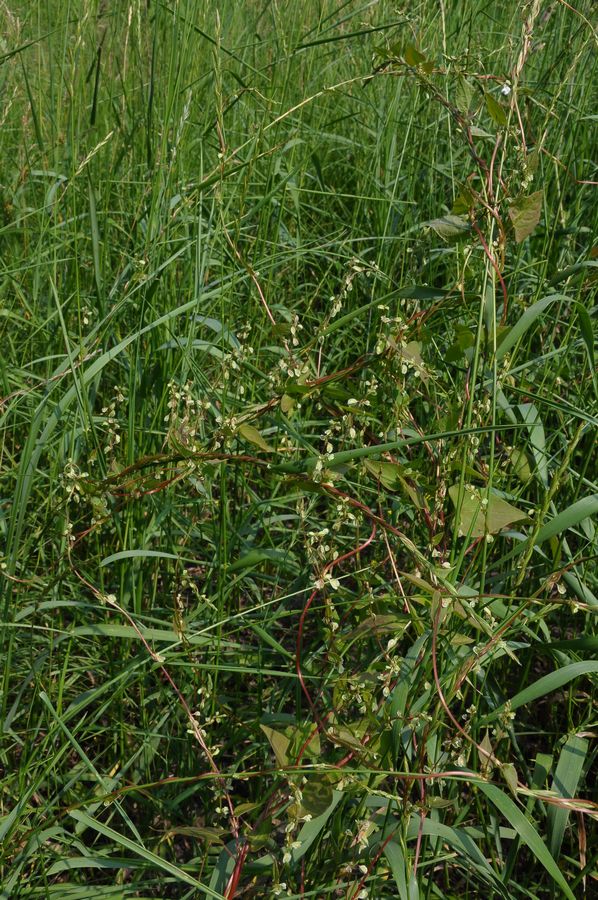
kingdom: Plantae
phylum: Tracheophyta
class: Magnoliopsida
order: Caryophyllales
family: Polygonaceae
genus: Fallopia
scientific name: Fallopia dumetorum
